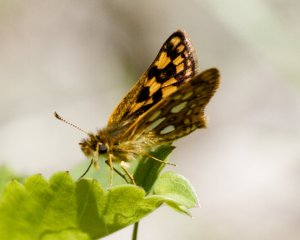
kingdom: Animalia
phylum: Arthropoda
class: Insecta
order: Lepidoptera
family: Hesperiidae
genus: Carterocephalus
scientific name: Carterocephalus palaemon
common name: Chequered Skipper
